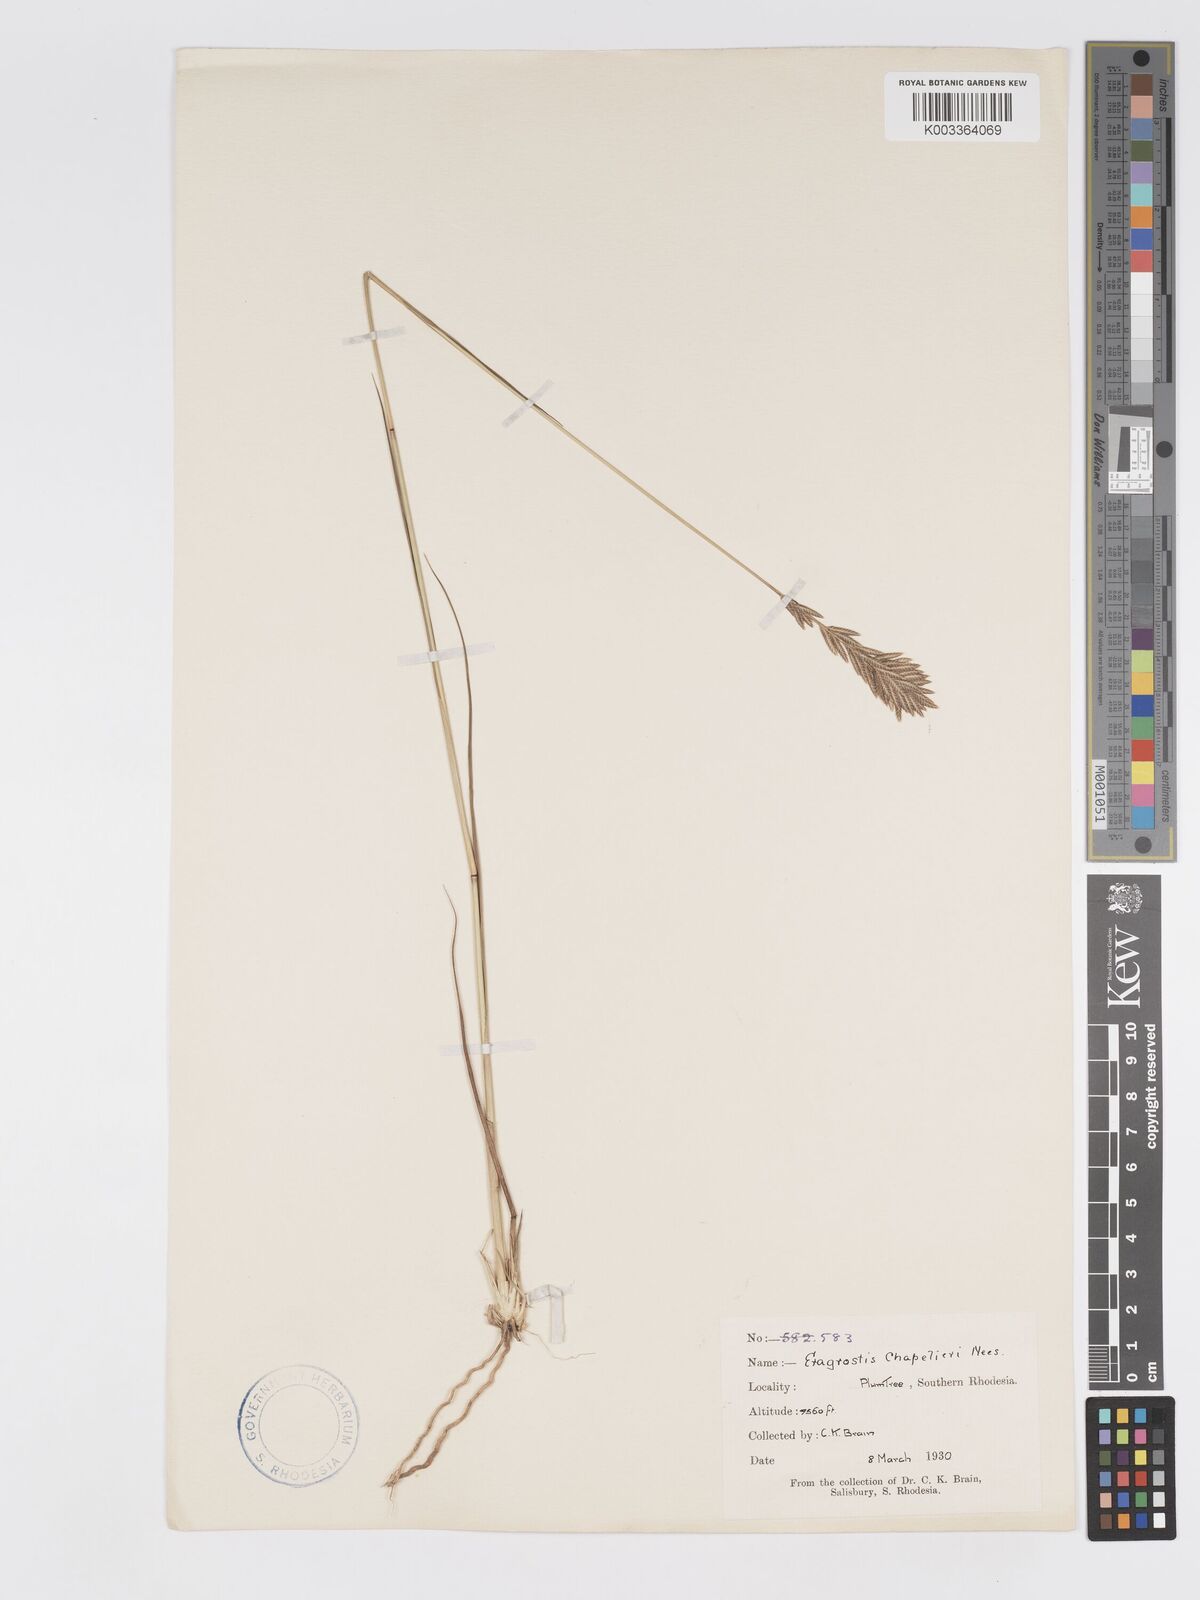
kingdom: Plantae
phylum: Tracheophyta
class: Liliopsida
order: Poales
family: Poaceae
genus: Eragrostis
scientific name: Eragrostis chapelieri
